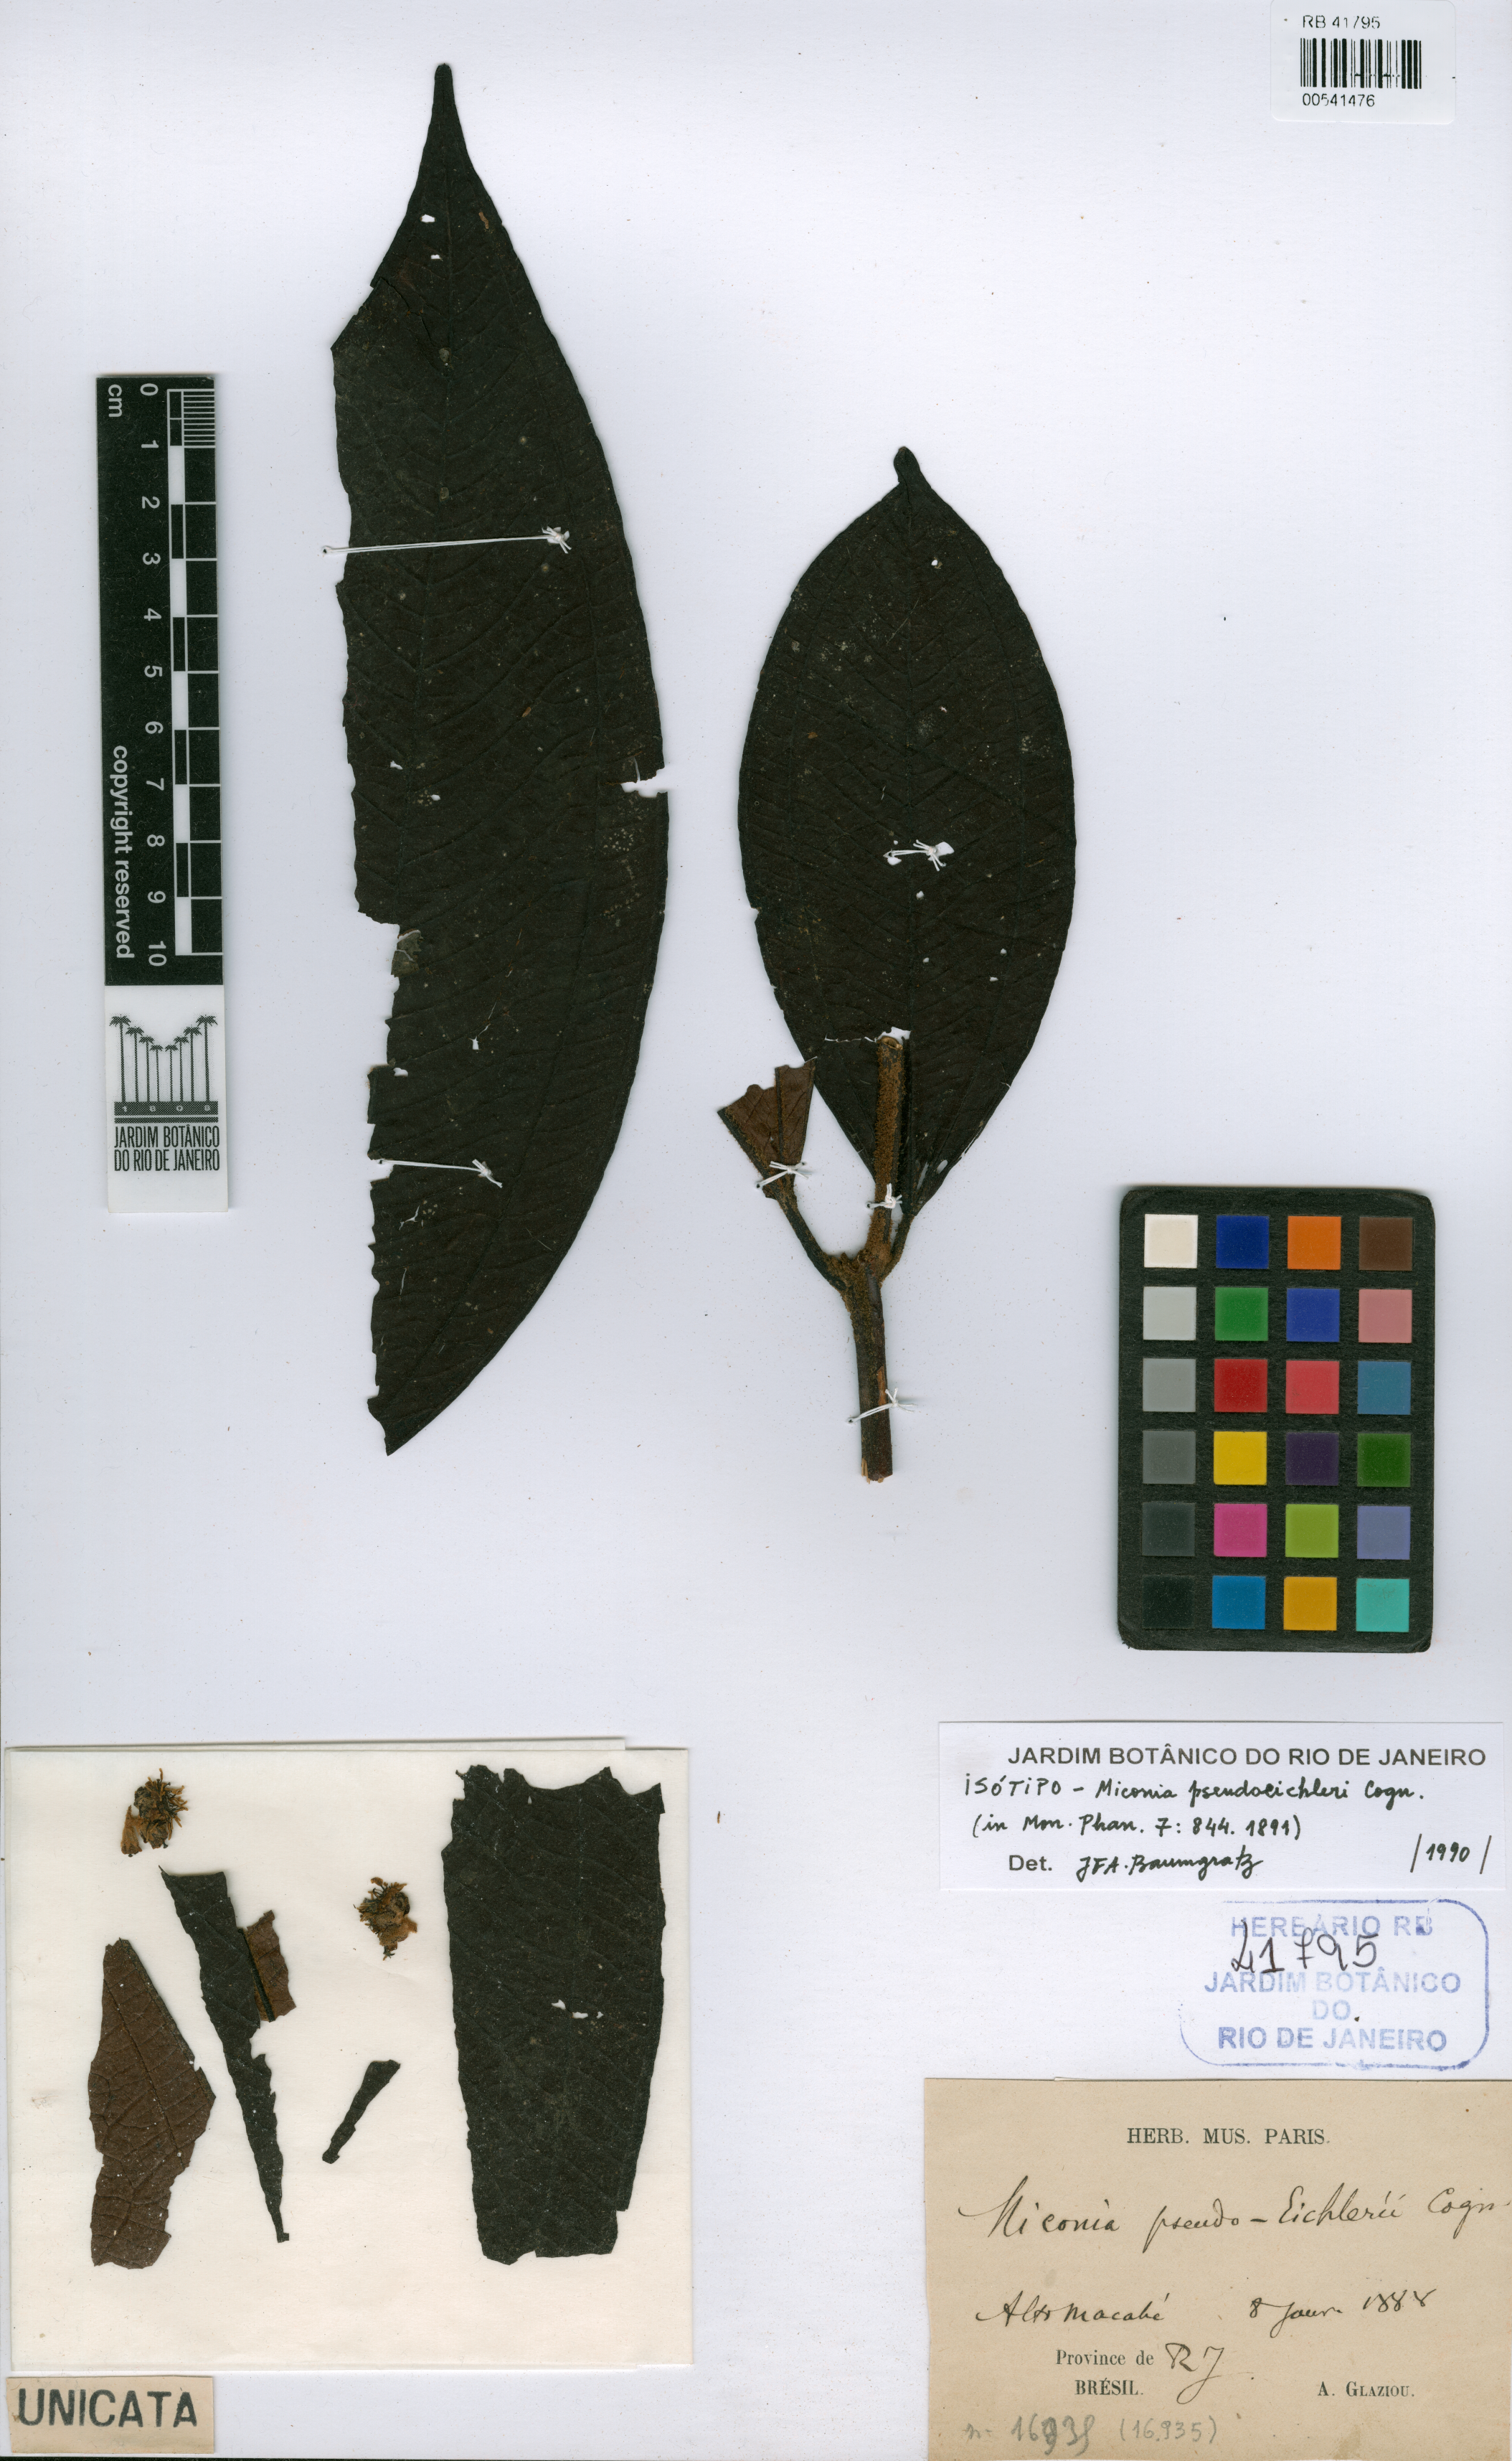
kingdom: Plantae
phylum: Tracheophyta
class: Magnoliopsida
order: Myrtales
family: Melastomataceae
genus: Miconia
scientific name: Miconia valtheri
